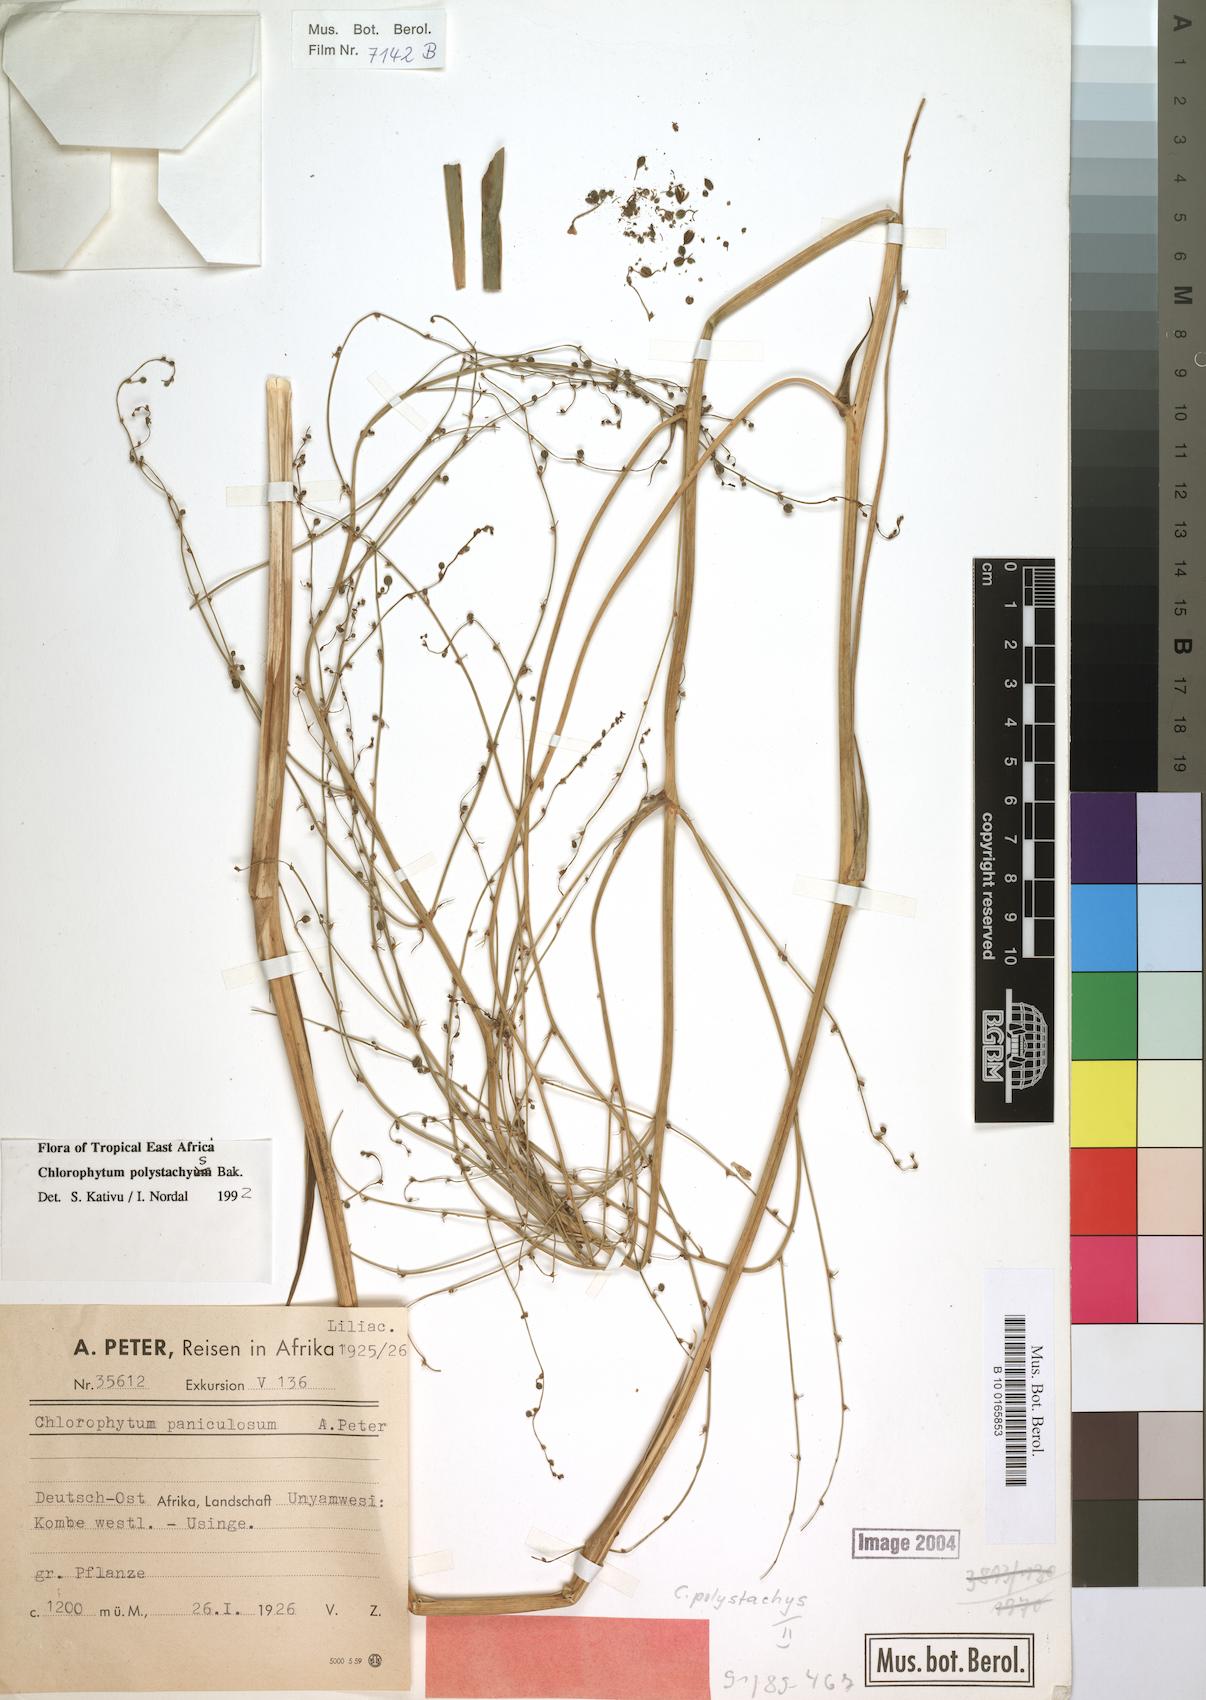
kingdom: Plantae
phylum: Tracheophyta
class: Liliopsida
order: Asparagales
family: Asparagaceae
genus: Chlorophytum
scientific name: Chlorophytum polystachys
